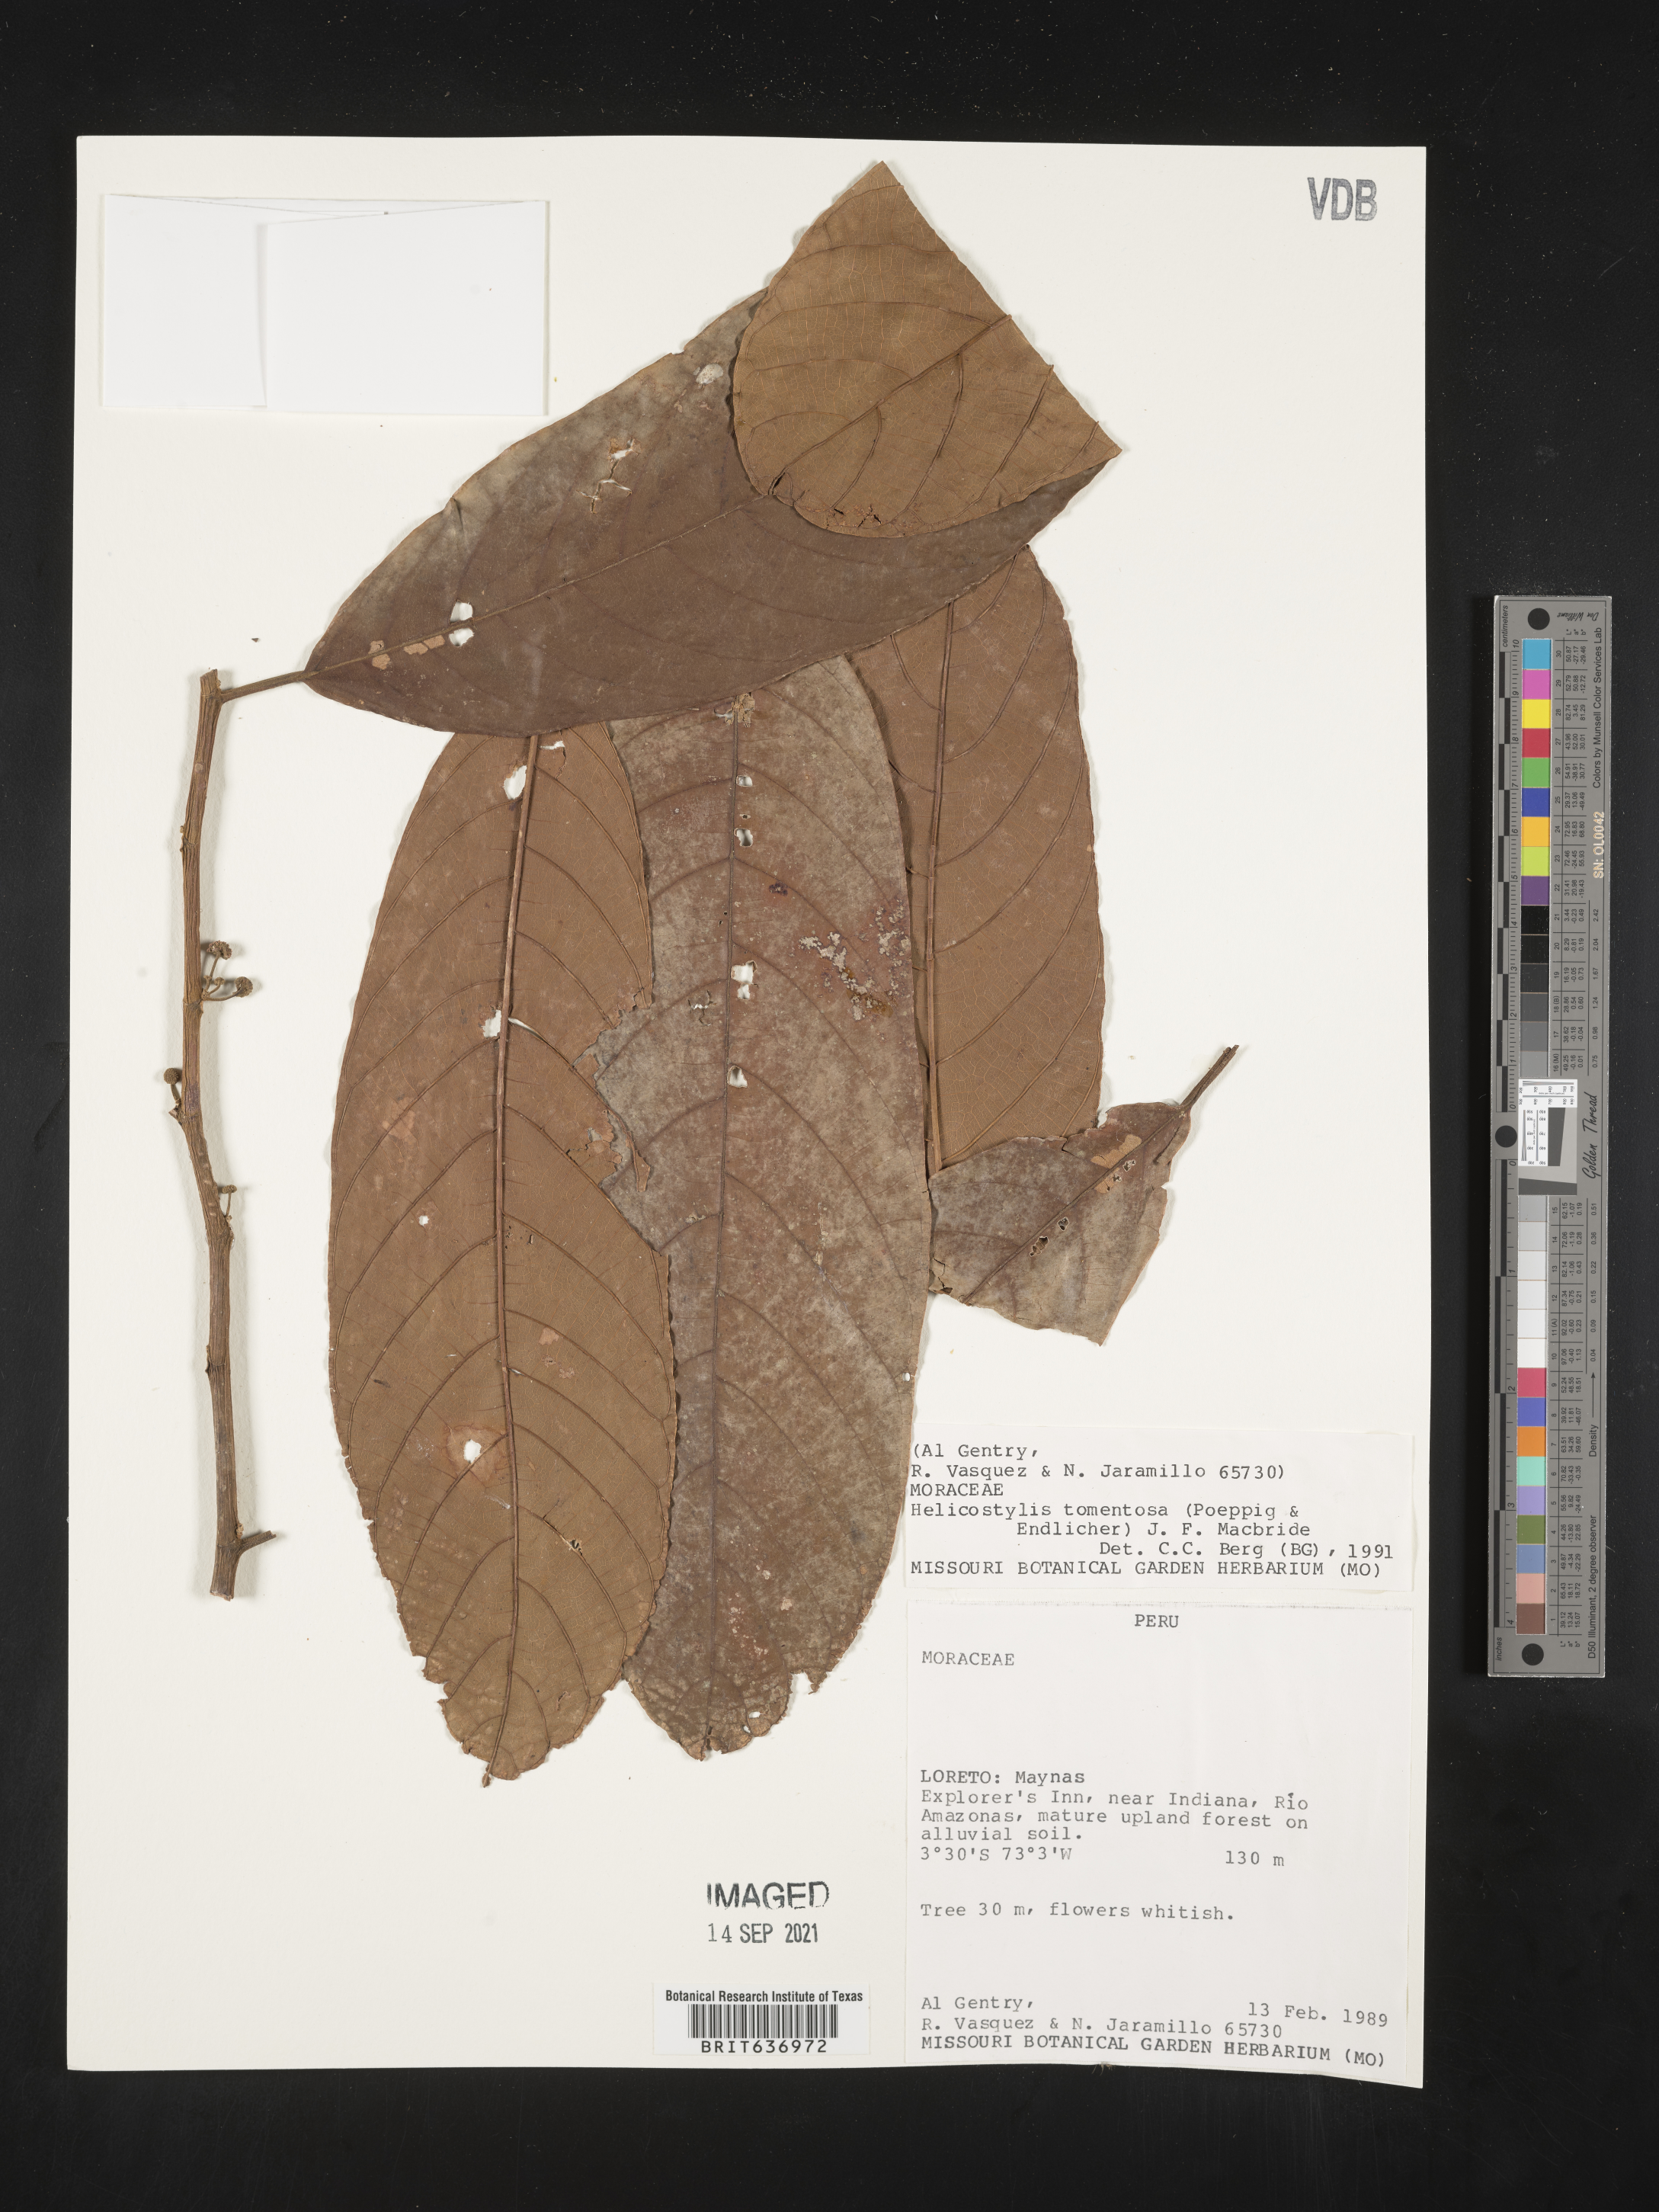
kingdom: Plantae
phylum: Tracheophyta
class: Magnoliopsida
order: Rosales
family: Moraceae
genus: Helicostylis
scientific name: Helicostylis
